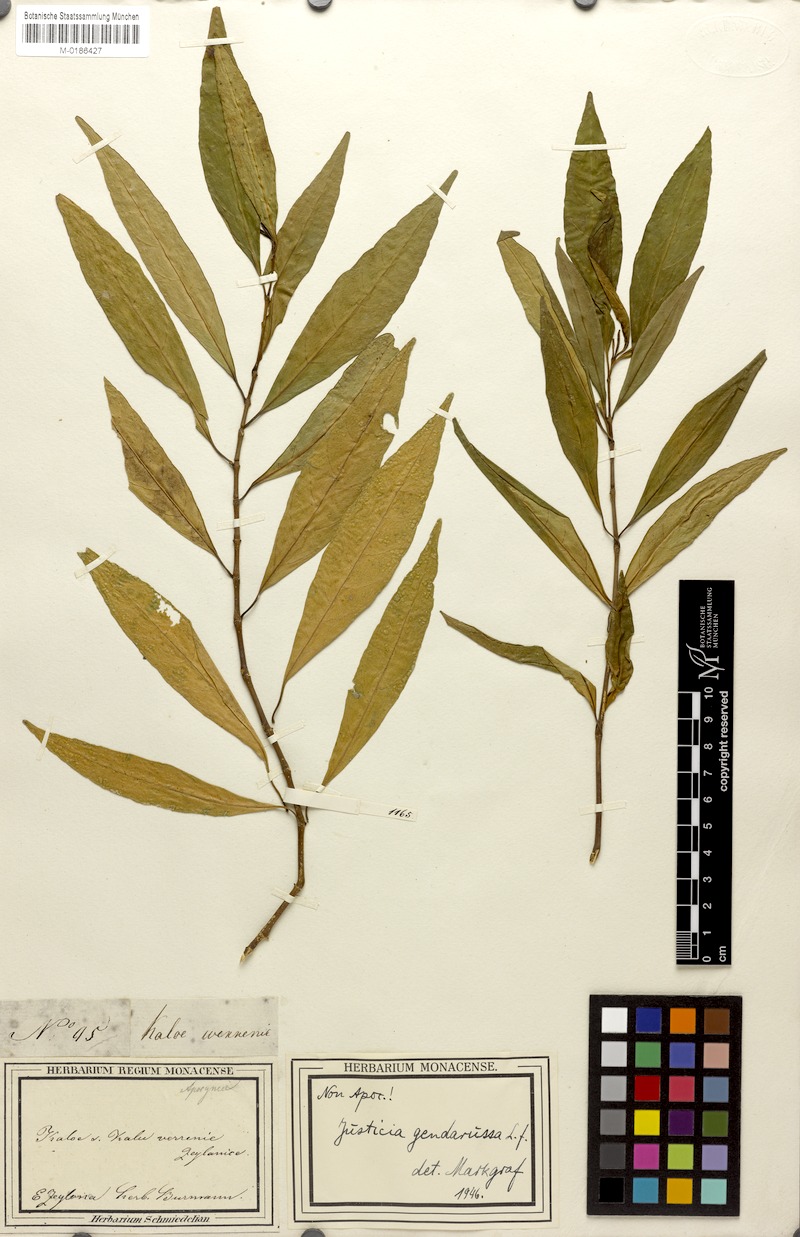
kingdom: Plantae
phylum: Tracheophyta
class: Magnoliopsida
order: Lamiales
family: Acanthaceae
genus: Justicia
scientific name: Justicia gendarussa
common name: Warer willow
